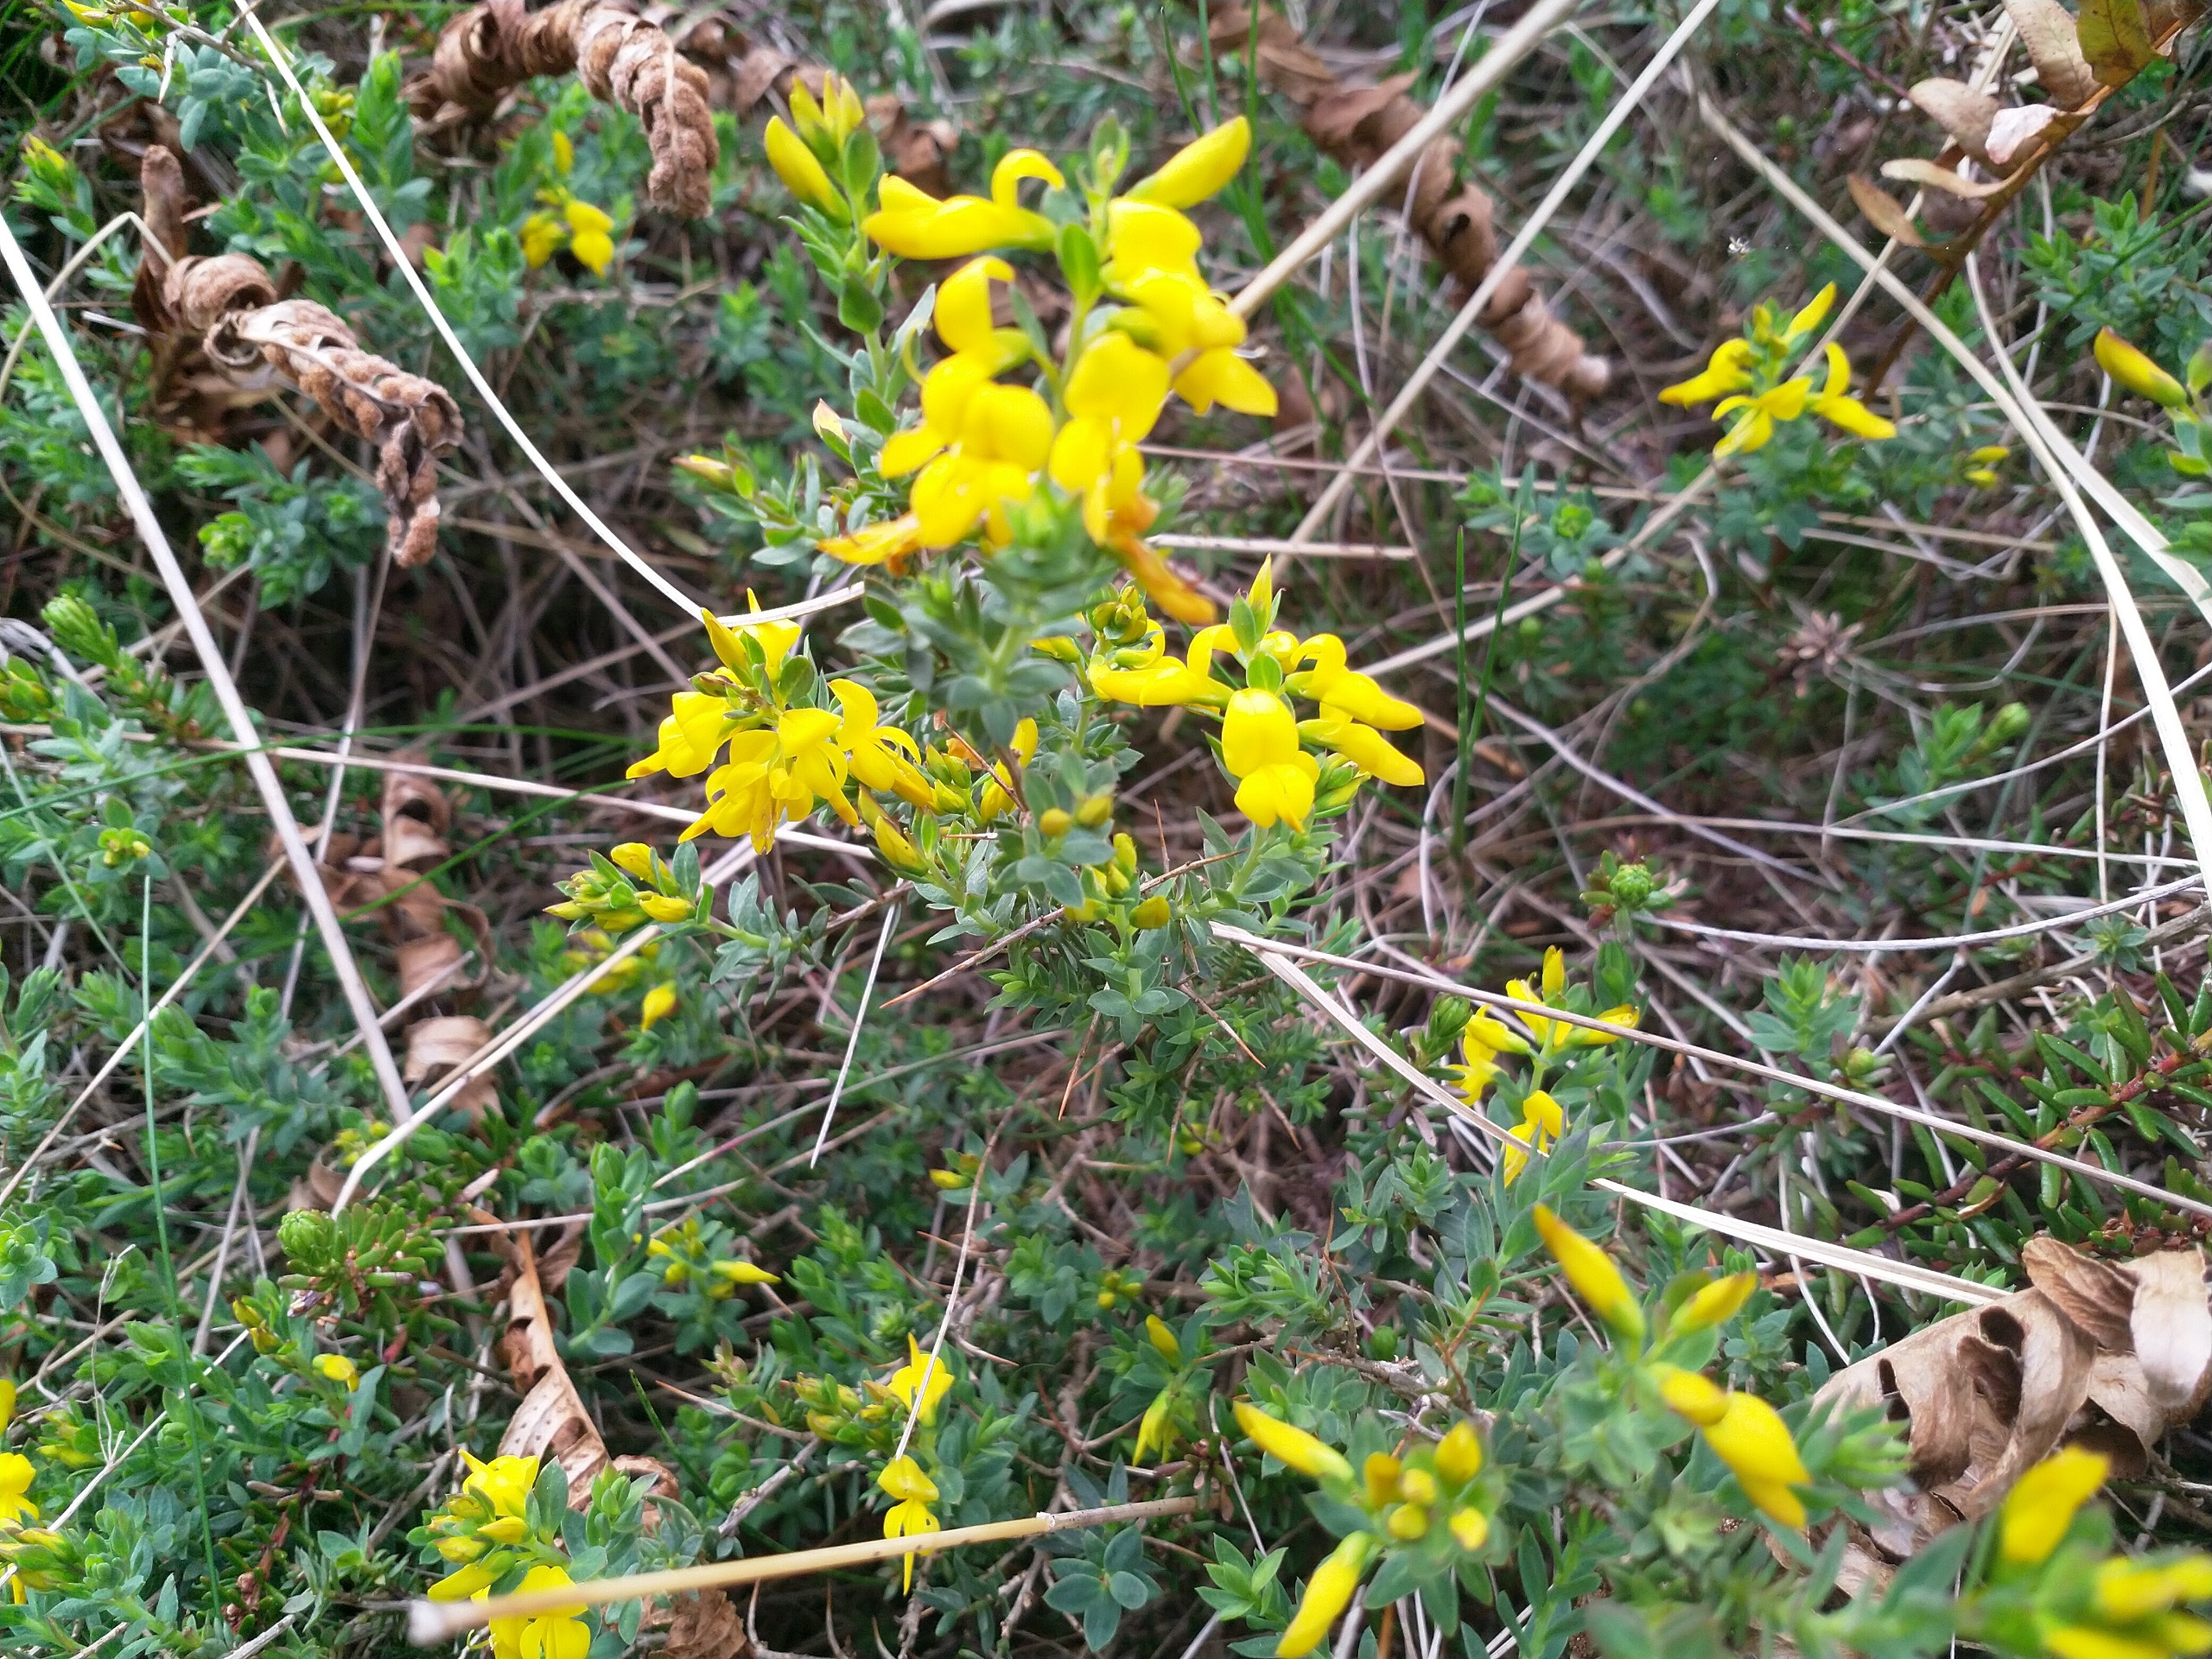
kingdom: Plantae
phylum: Tracheophyta
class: Magnoliopsida
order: Fabales
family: Fabaceae
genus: Genista
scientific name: Genista anglica
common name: Engelsk visse
